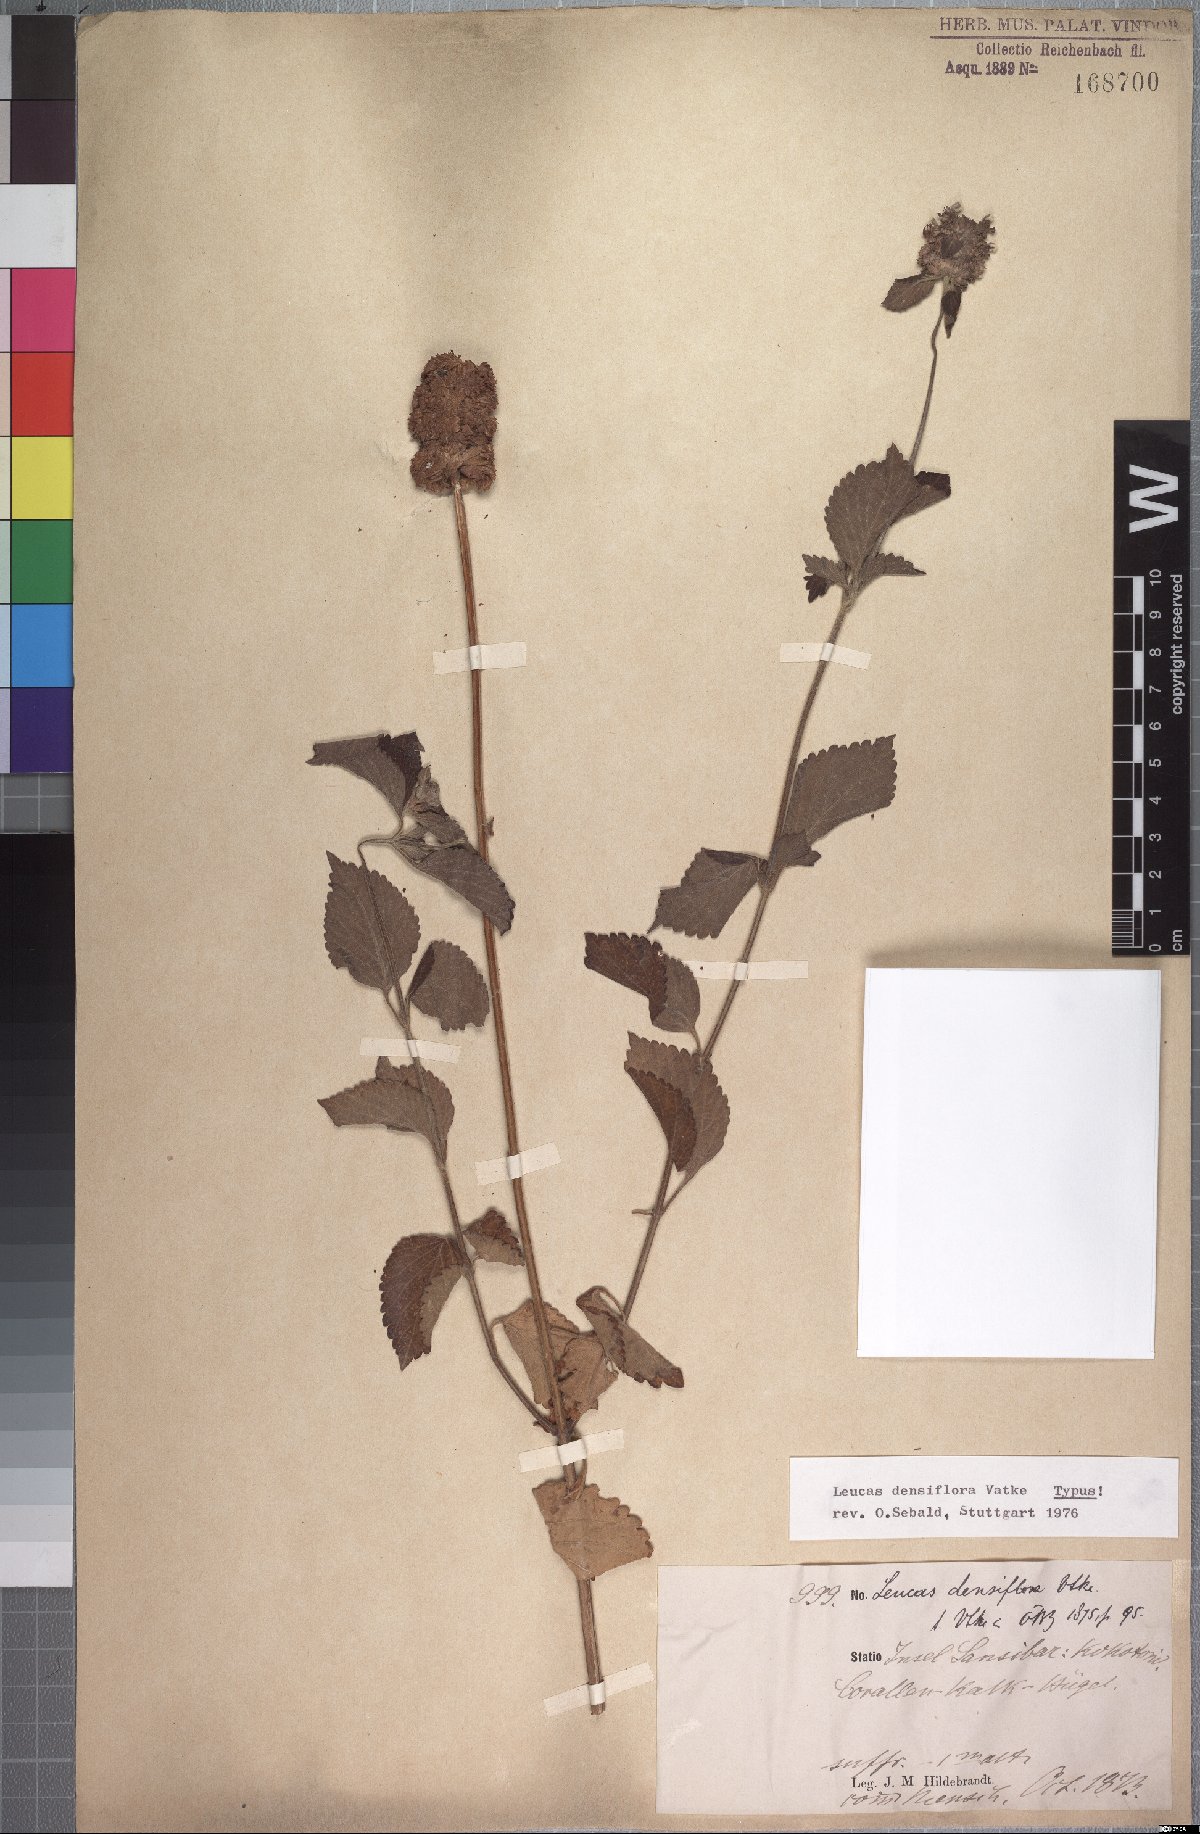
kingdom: Plantae
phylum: Tracheophyta
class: Magnoliopsida
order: Lamiales
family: Lamiaceae
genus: Leucas
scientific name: Leucas densiflora
